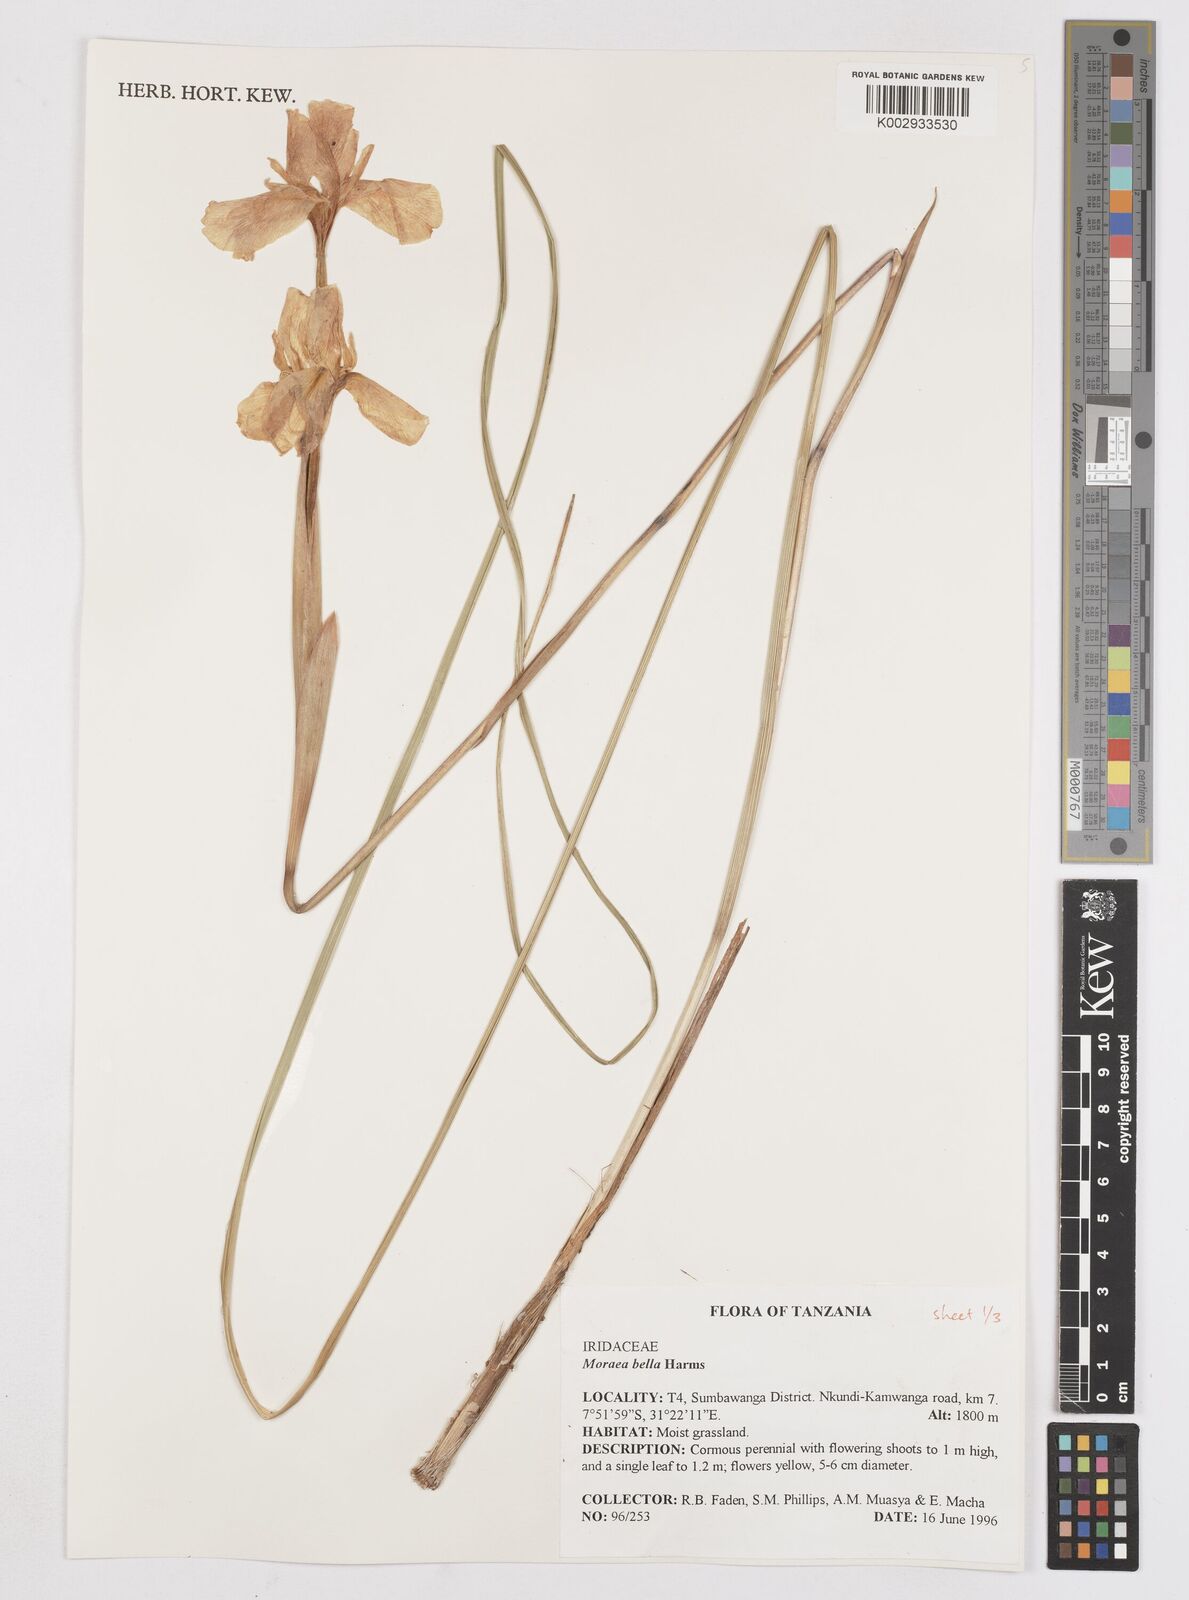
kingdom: Plantae
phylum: Tracheophyta
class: Liliopsida
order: Asparagales
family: Iridaceae
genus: Moraea
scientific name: Moraea bella
